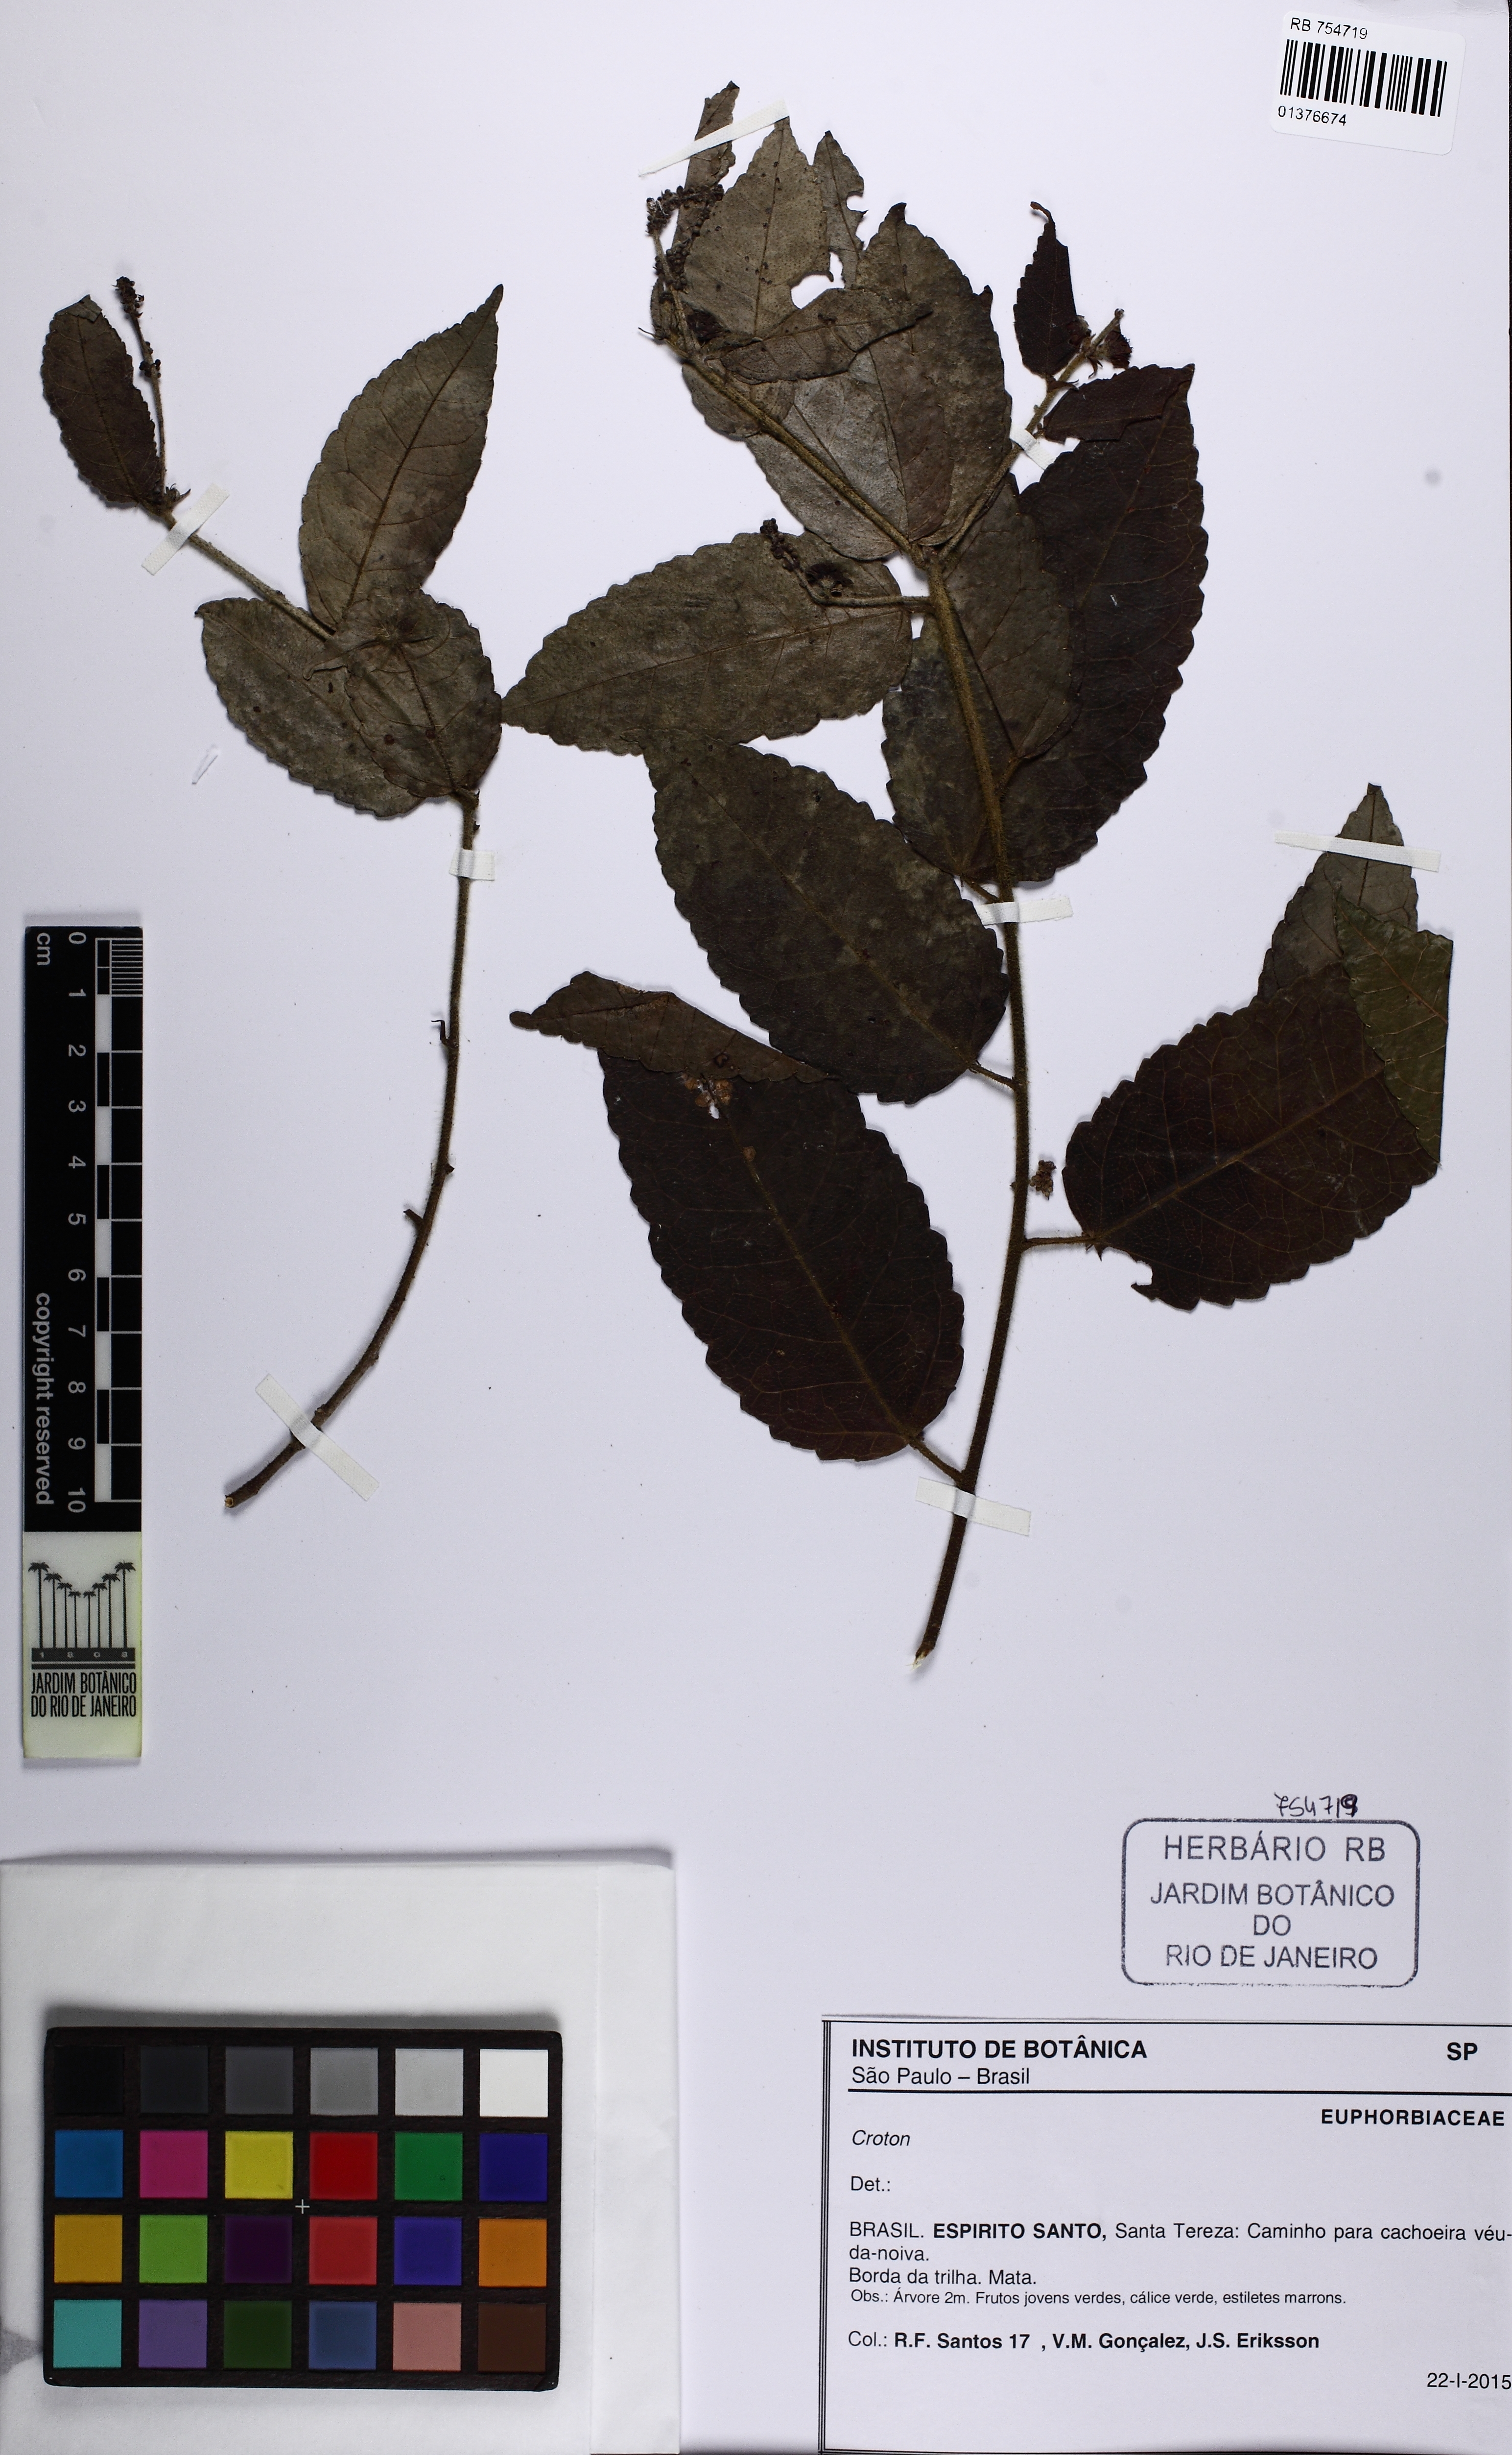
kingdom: Plantae
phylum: Tracheophyta
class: Magnoliopsida
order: Malpighiales
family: Euphorbiaceae
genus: Croton
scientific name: Croton sincorensis
